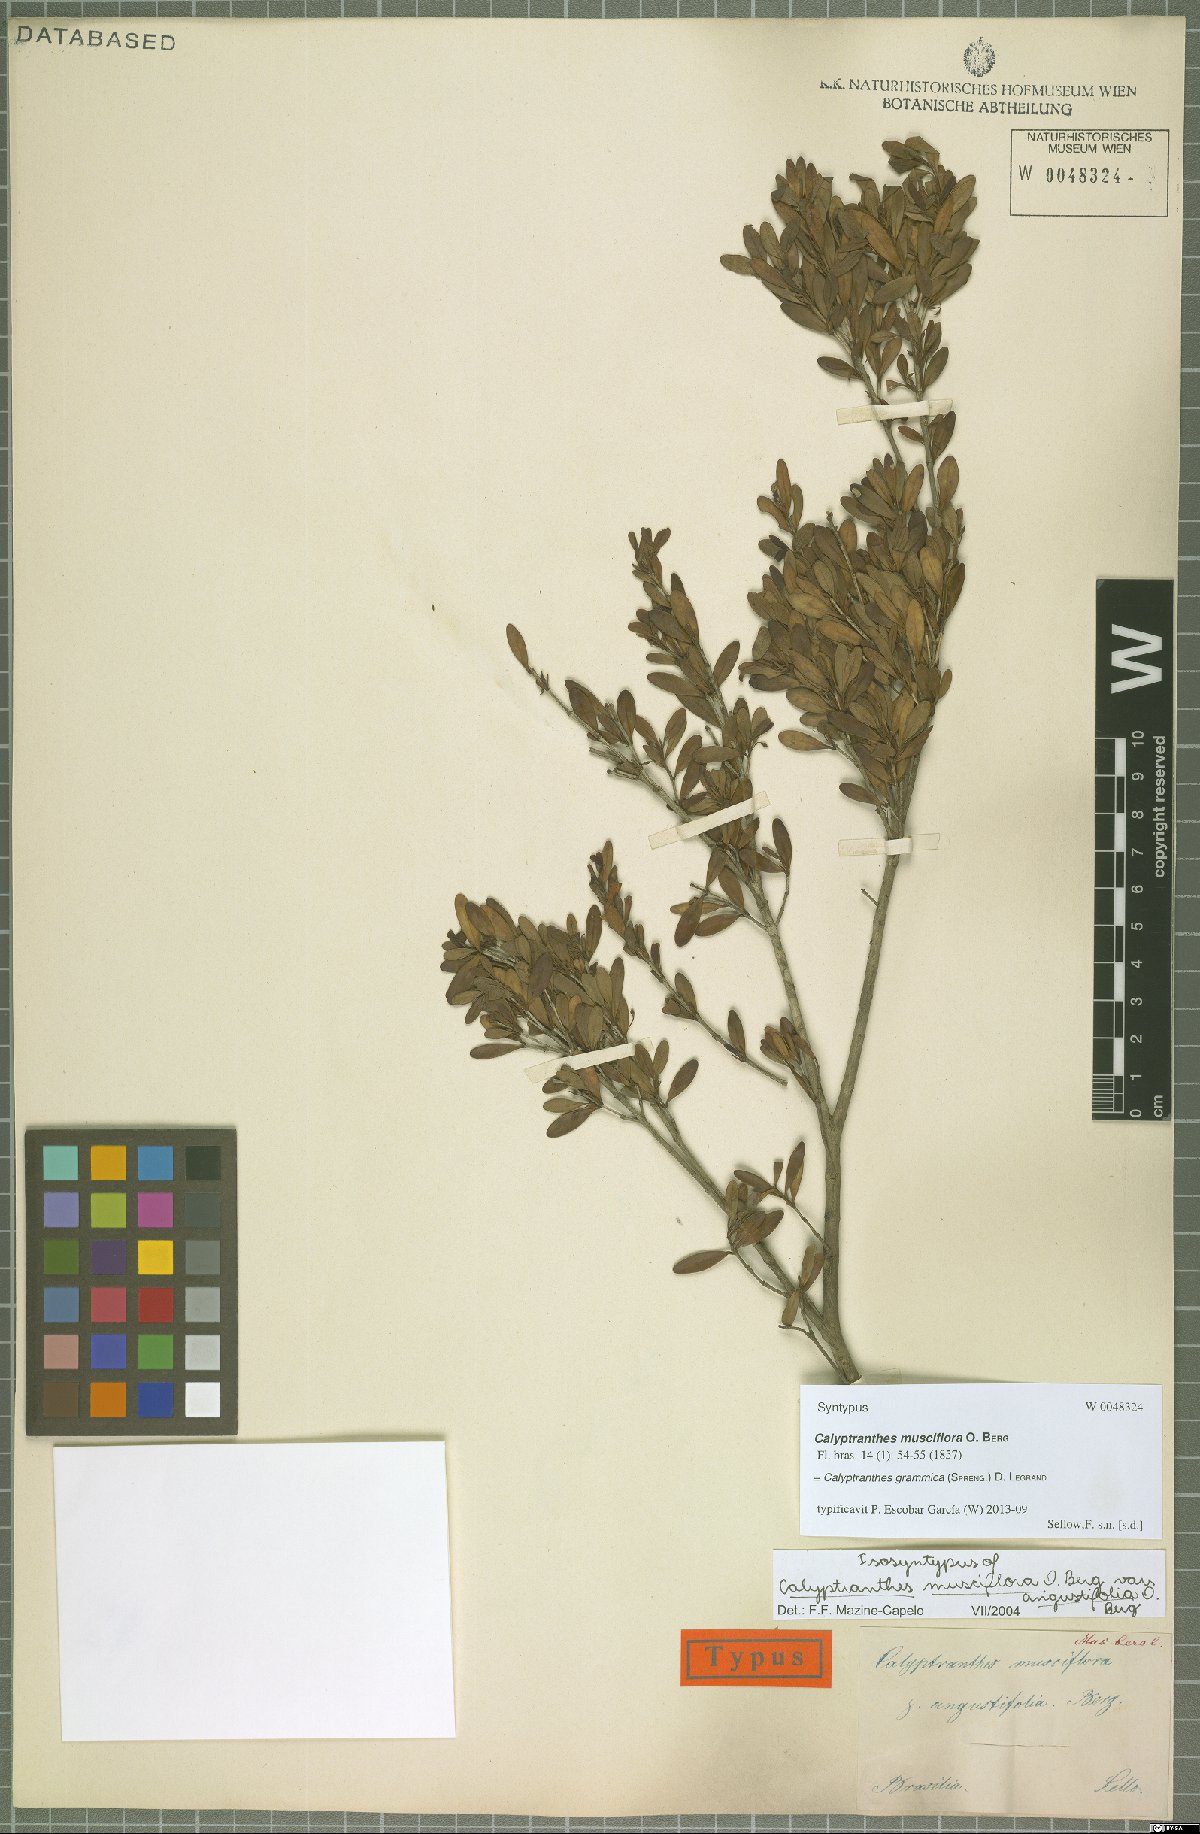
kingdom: Plantae
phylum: Tracheophyta
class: Magnoliopsida
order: Myrtales
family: Myrtaceae
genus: Myrcia
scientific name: Myrcia grammica
